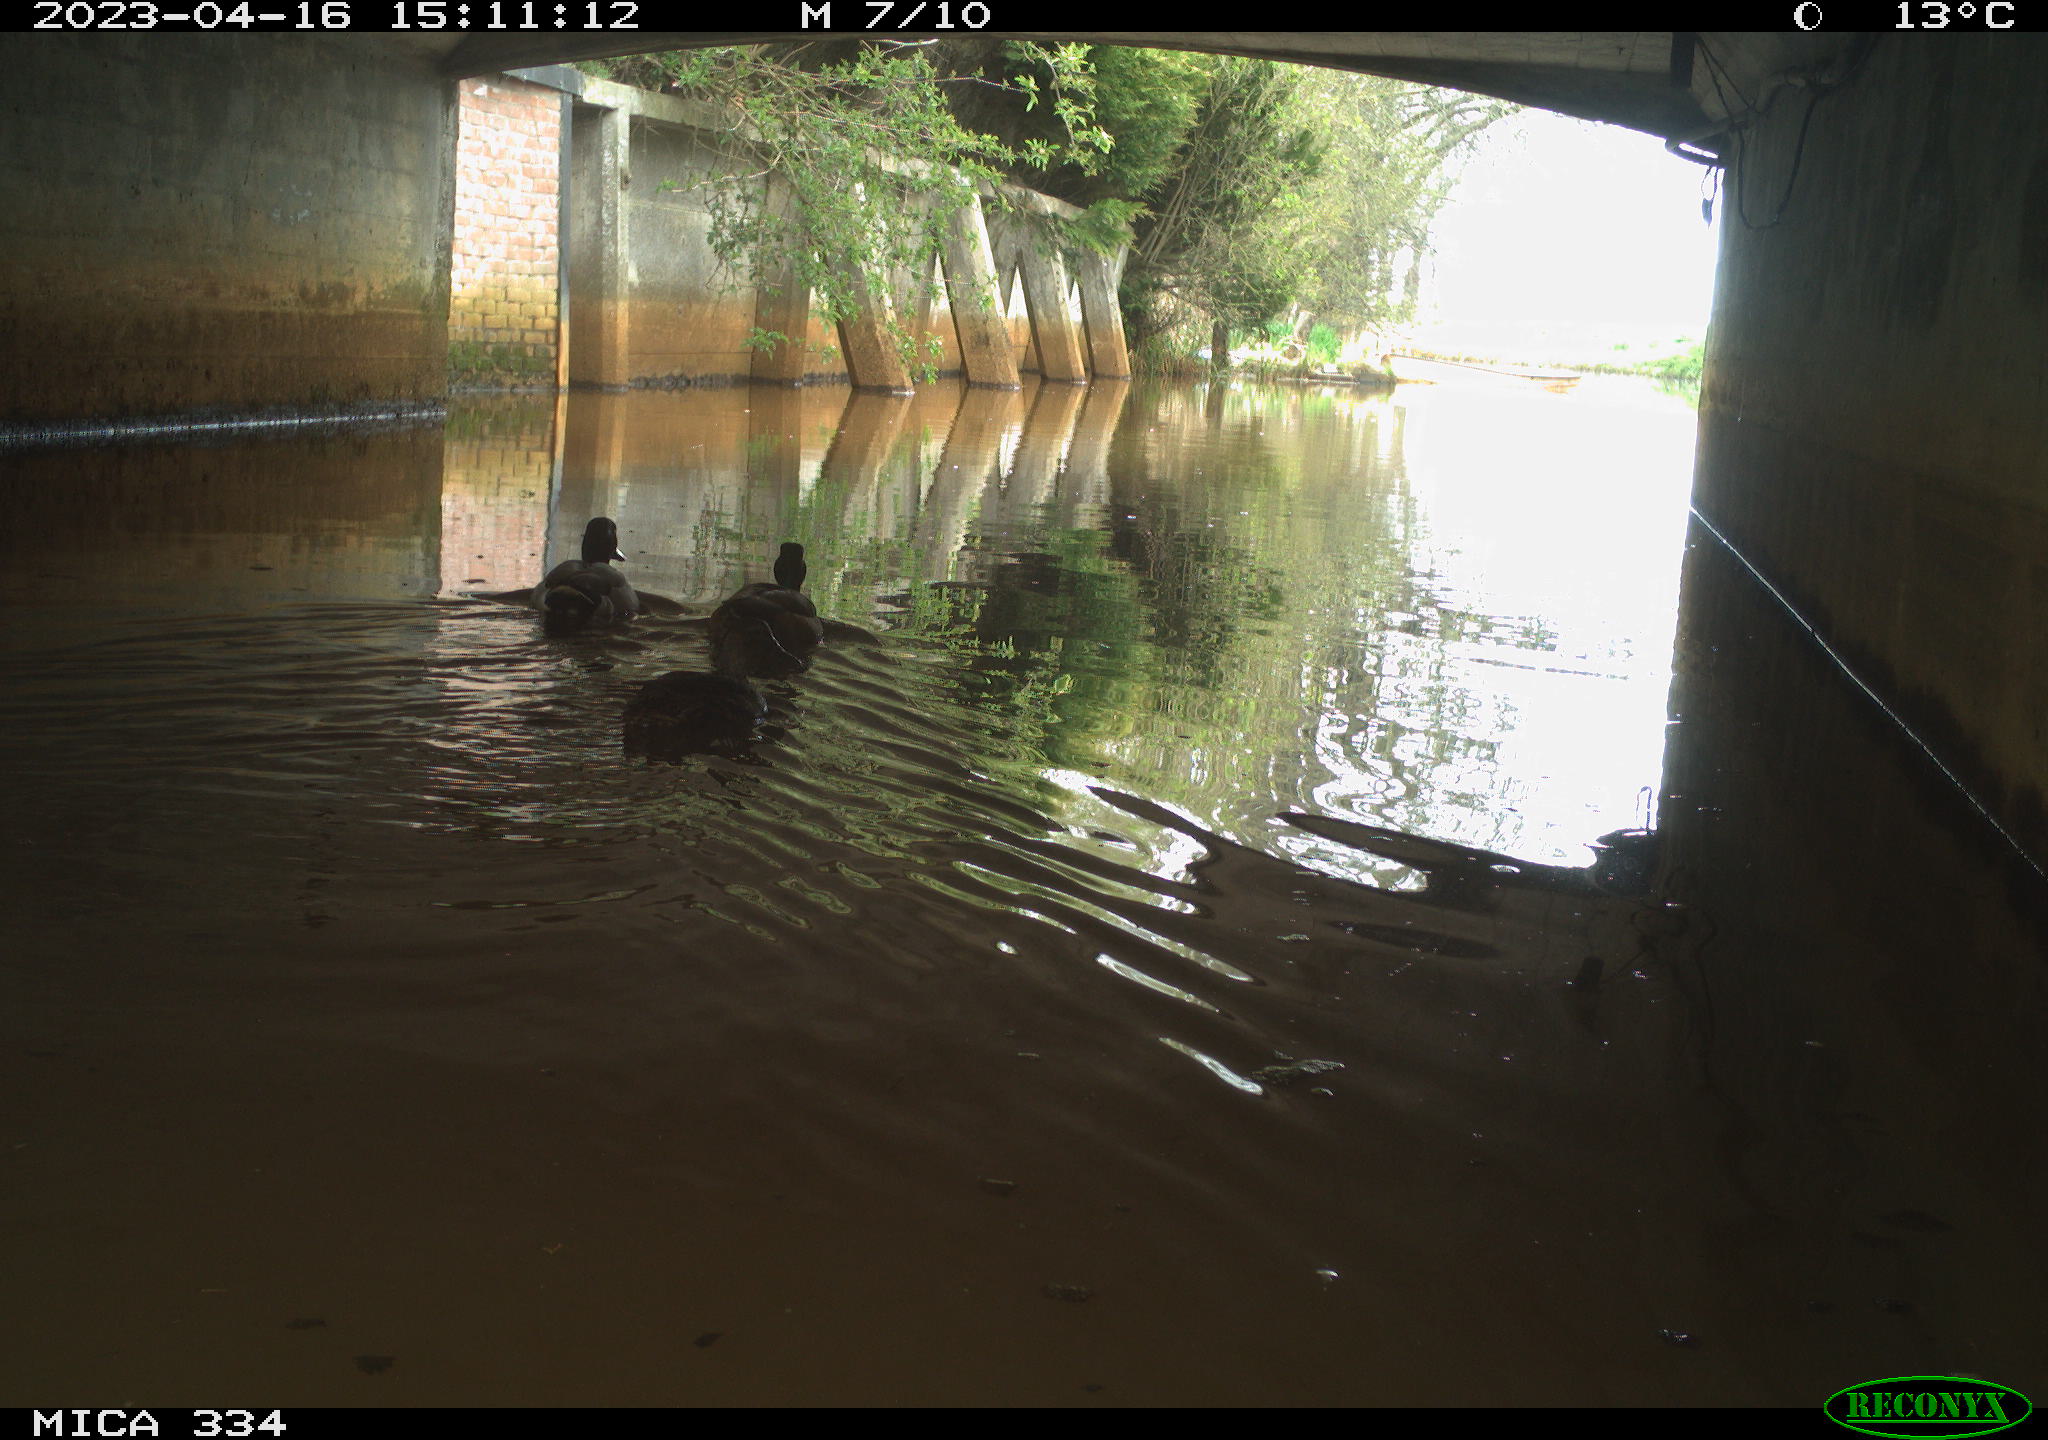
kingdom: Animalia
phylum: Chordata
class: Aves
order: Anseriformes
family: Anatidae
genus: Anas
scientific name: Anas
